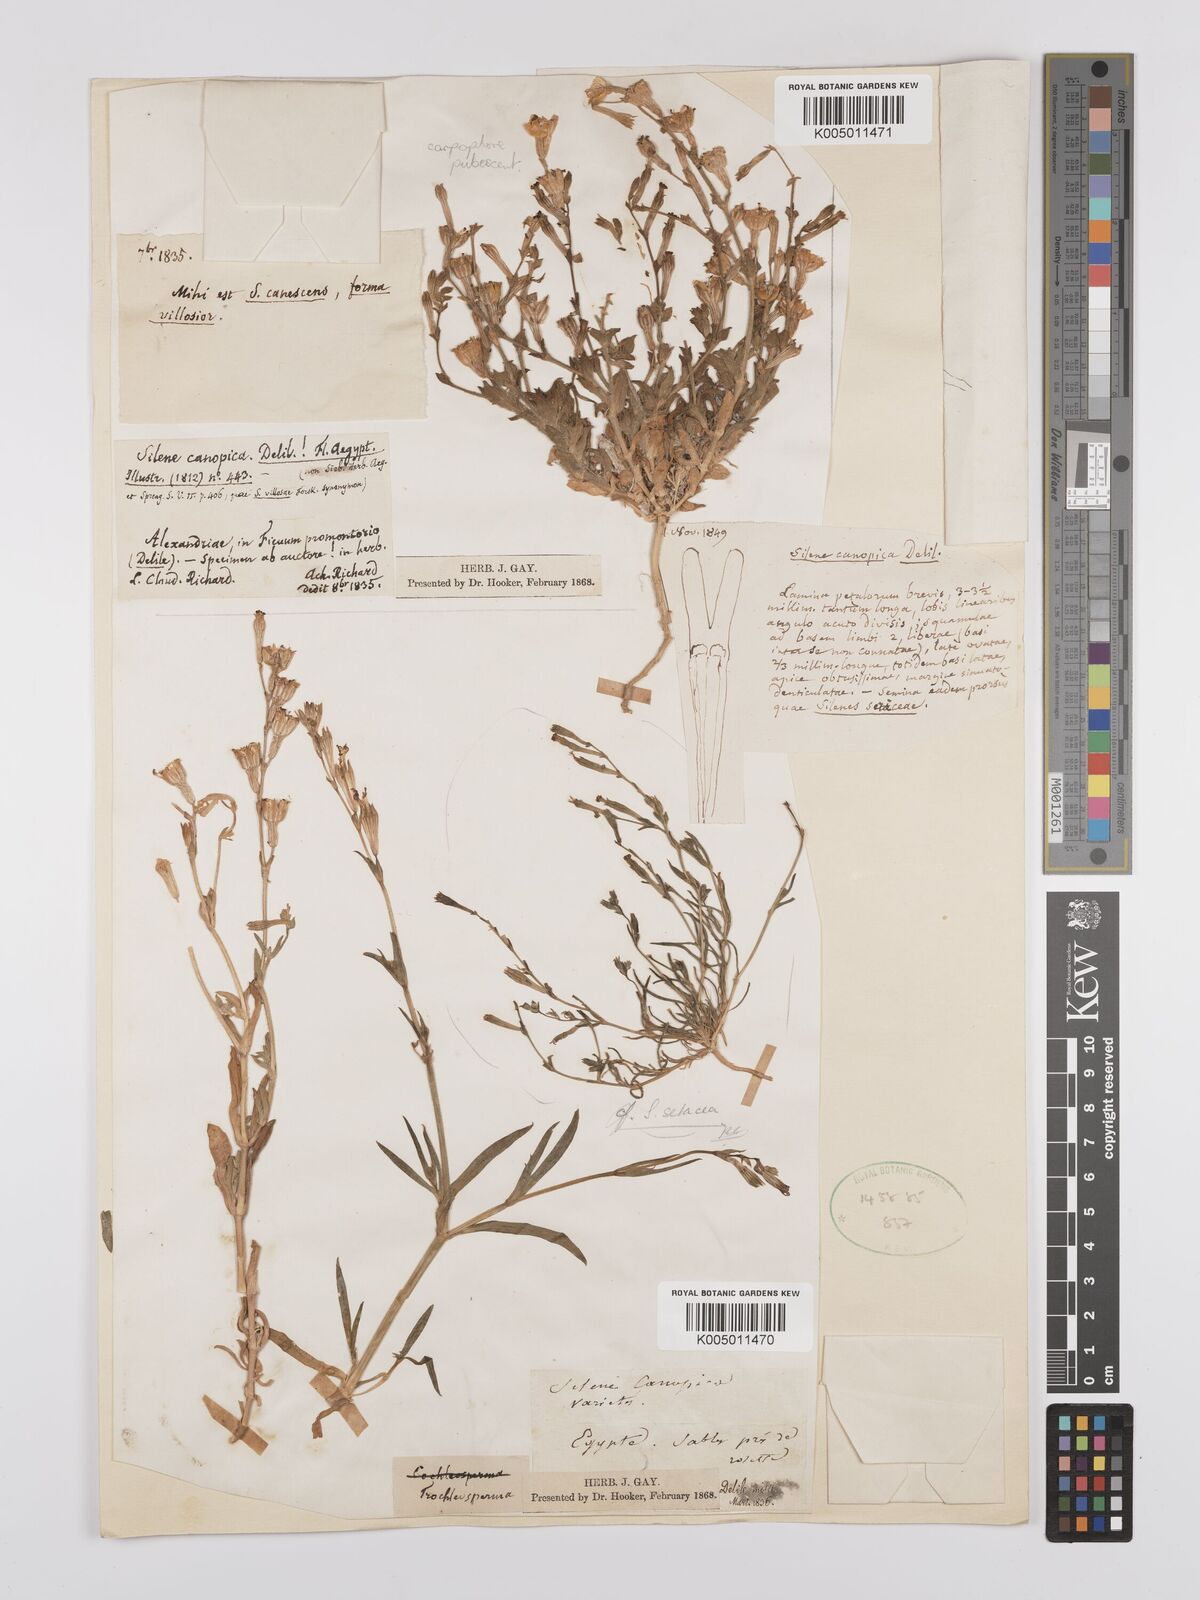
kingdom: Plantae
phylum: Tracheophyta
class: Magnoliopsida
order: Caryophyllales
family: Caryophyllaceae
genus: Silene
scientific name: Silene biappendiculata
